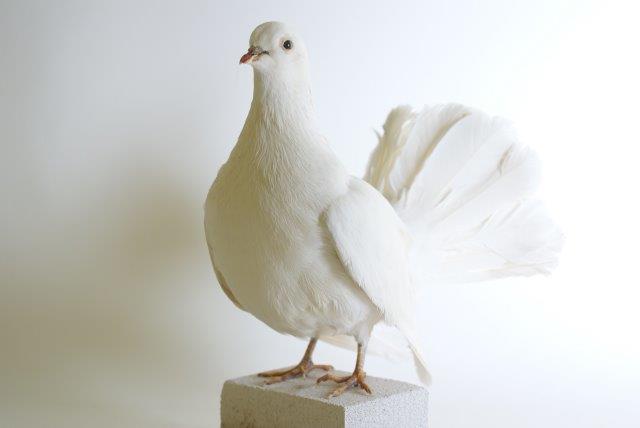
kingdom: Animalia
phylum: Chordata
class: Aves
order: Columbiformes
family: Columbidae
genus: Columba
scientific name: Columba livia
